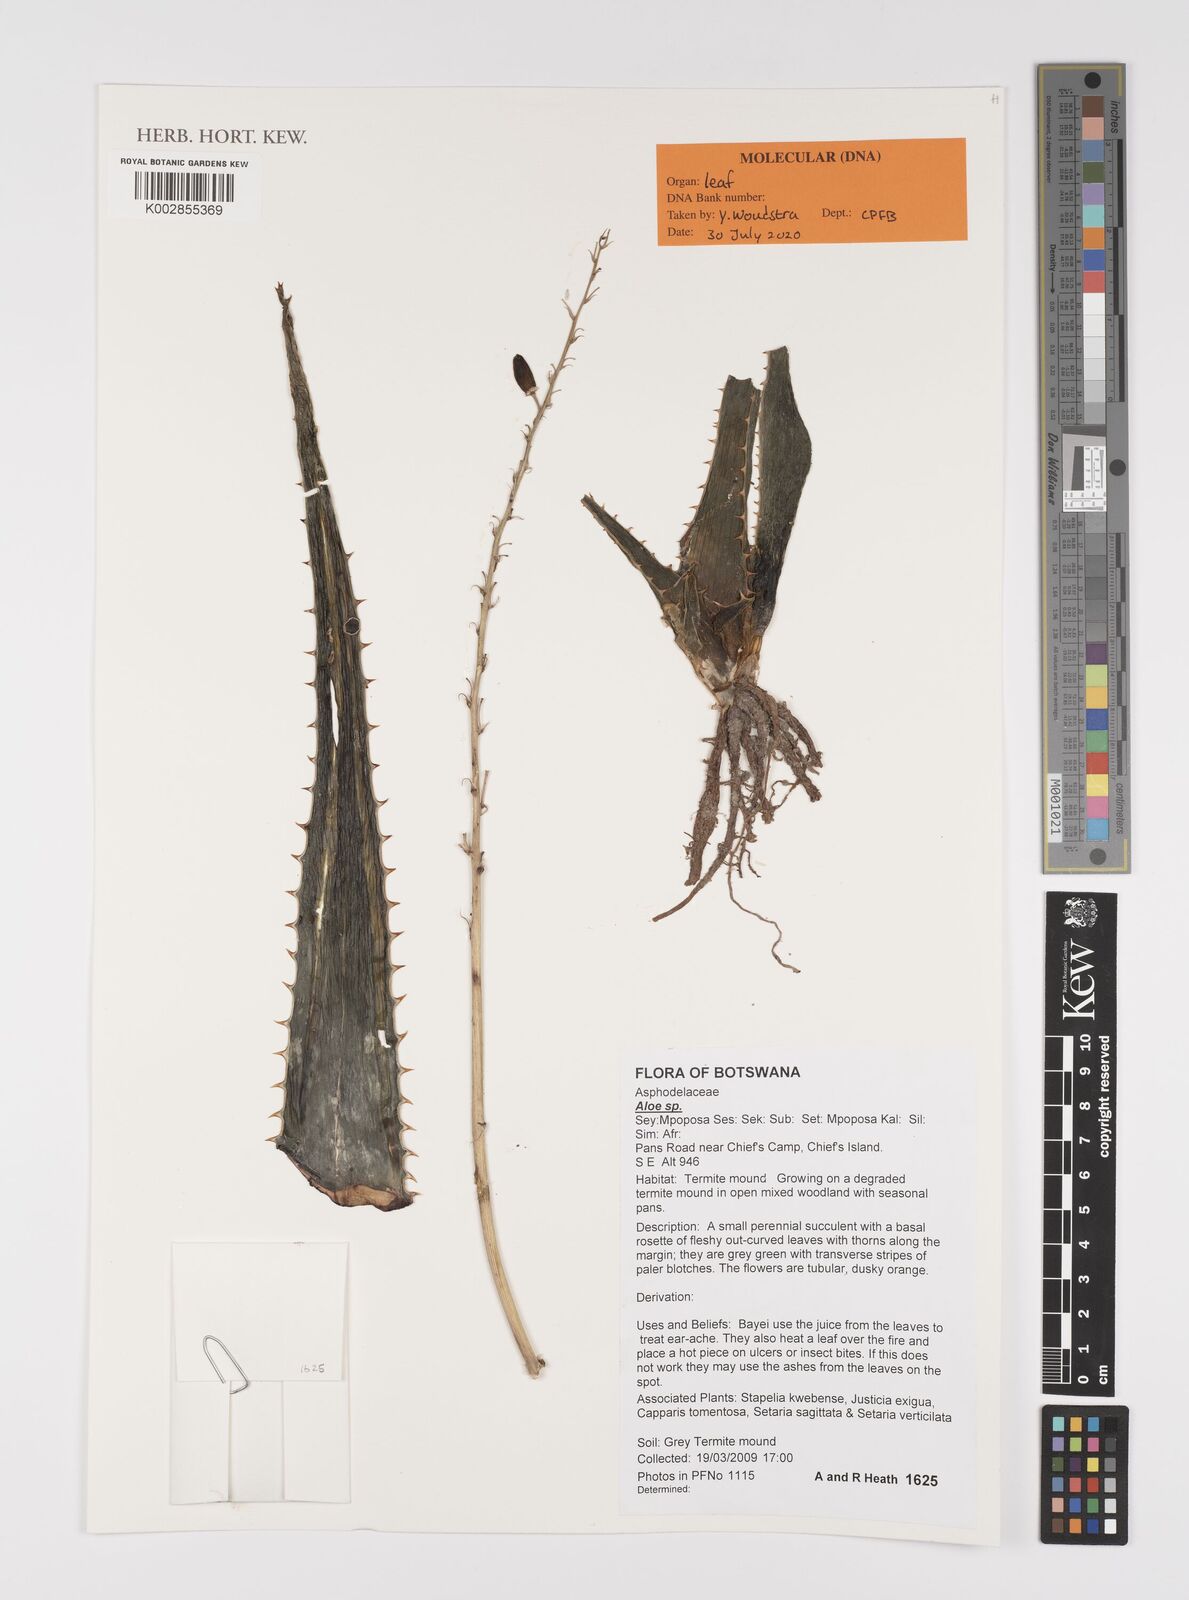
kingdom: Plantae
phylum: Tracheophyta
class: Liliopsida
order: Asparagales
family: Asphodelaceae
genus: Aloe
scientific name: Aloe
